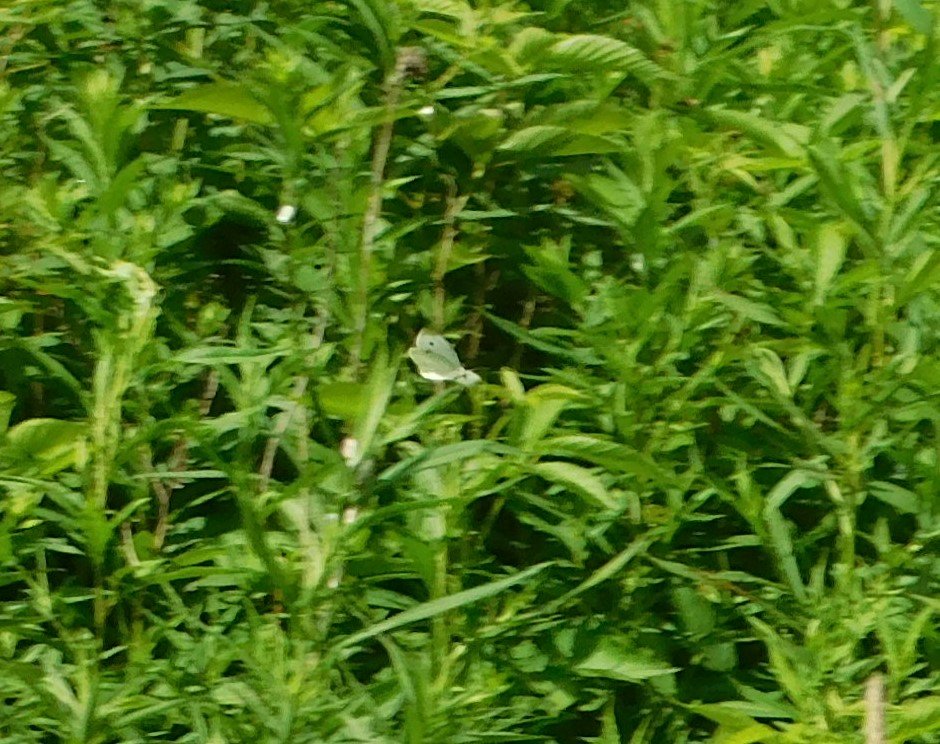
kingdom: Animalia
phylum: Arthropoda
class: Insecta
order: Lepidoptera
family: Pieridae
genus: Pieris
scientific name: Pieris rapae
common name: Cabbage White
